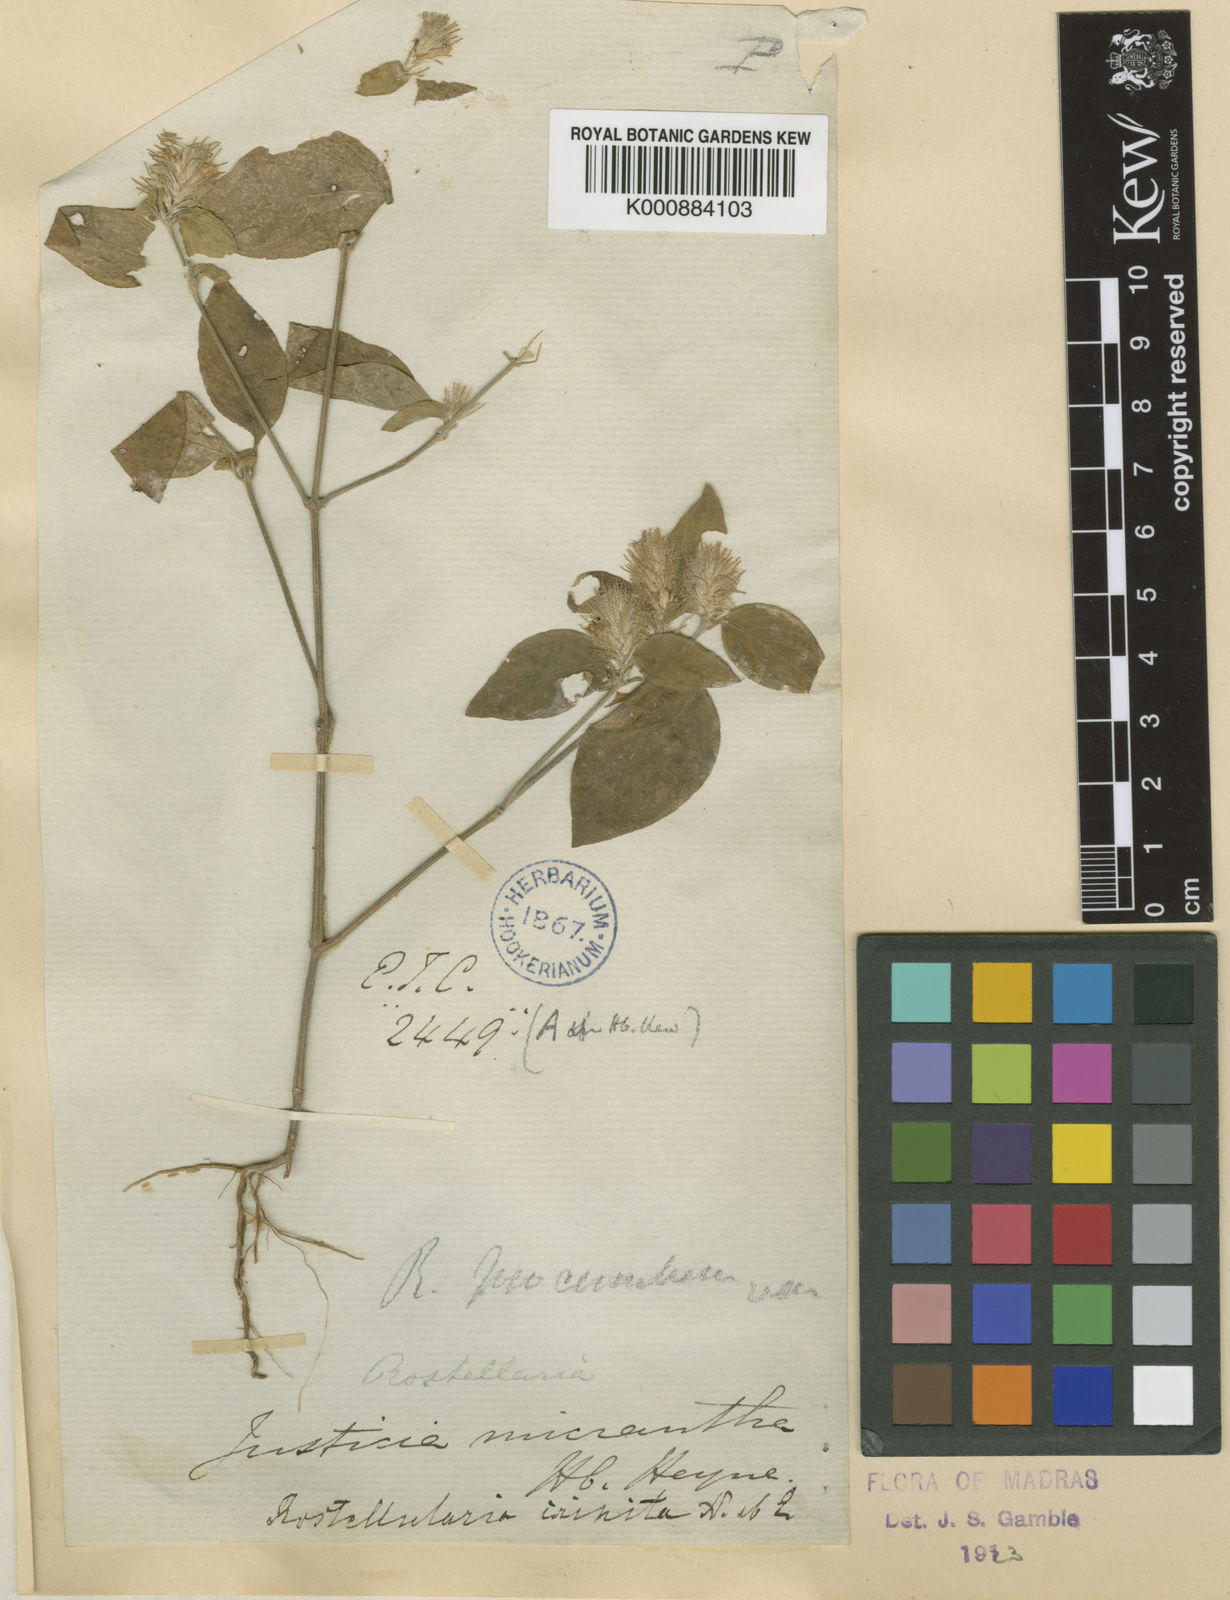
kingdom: Plantae
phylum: Tracheophyta
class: Magnoliopsida
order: Lamiales
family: Acanthaceae
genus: Justicia
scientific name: Justicia micrantha
